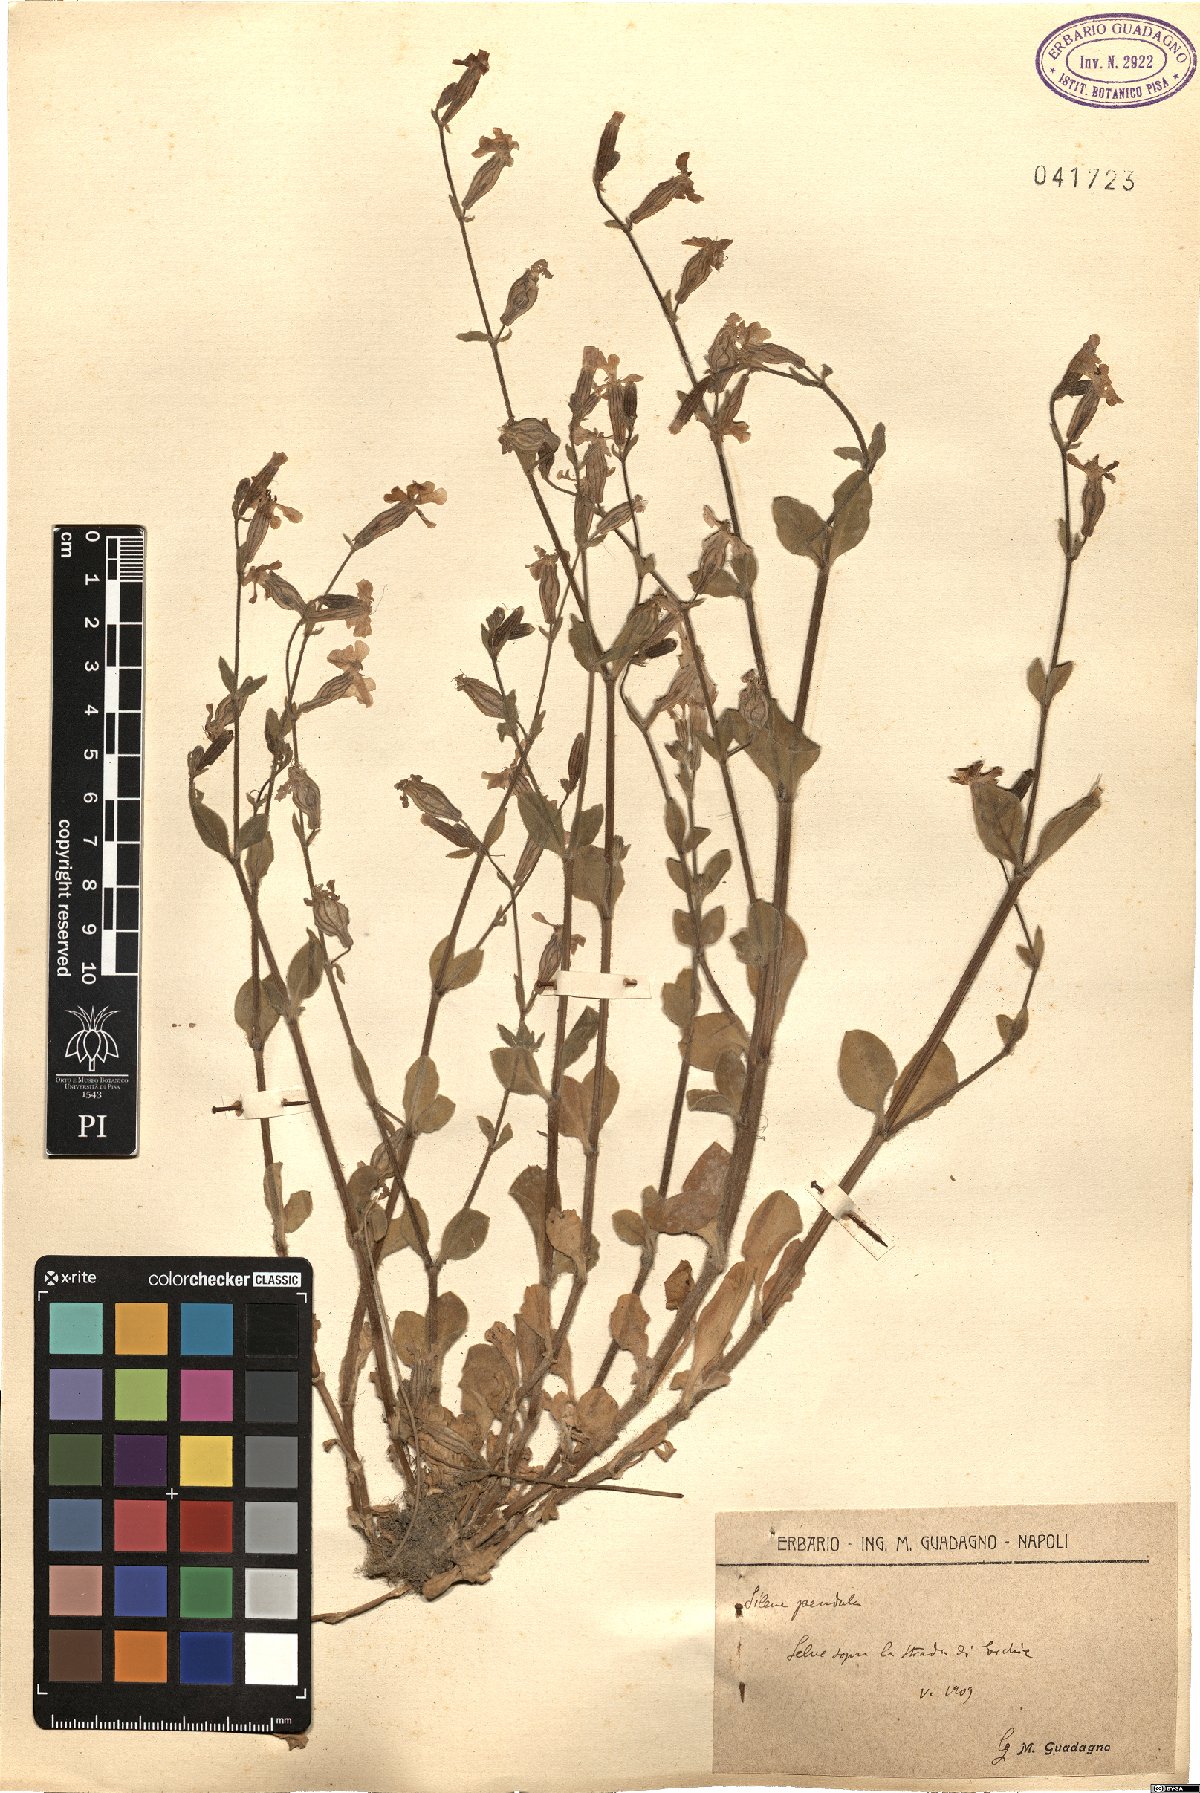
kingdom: Plantae
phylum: Tracheophyta
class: Magnoliopsida
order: Caryophyllales
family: Caryophyllaceae
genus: Silene
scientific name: Silene pendula
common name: Nodding catchfly
